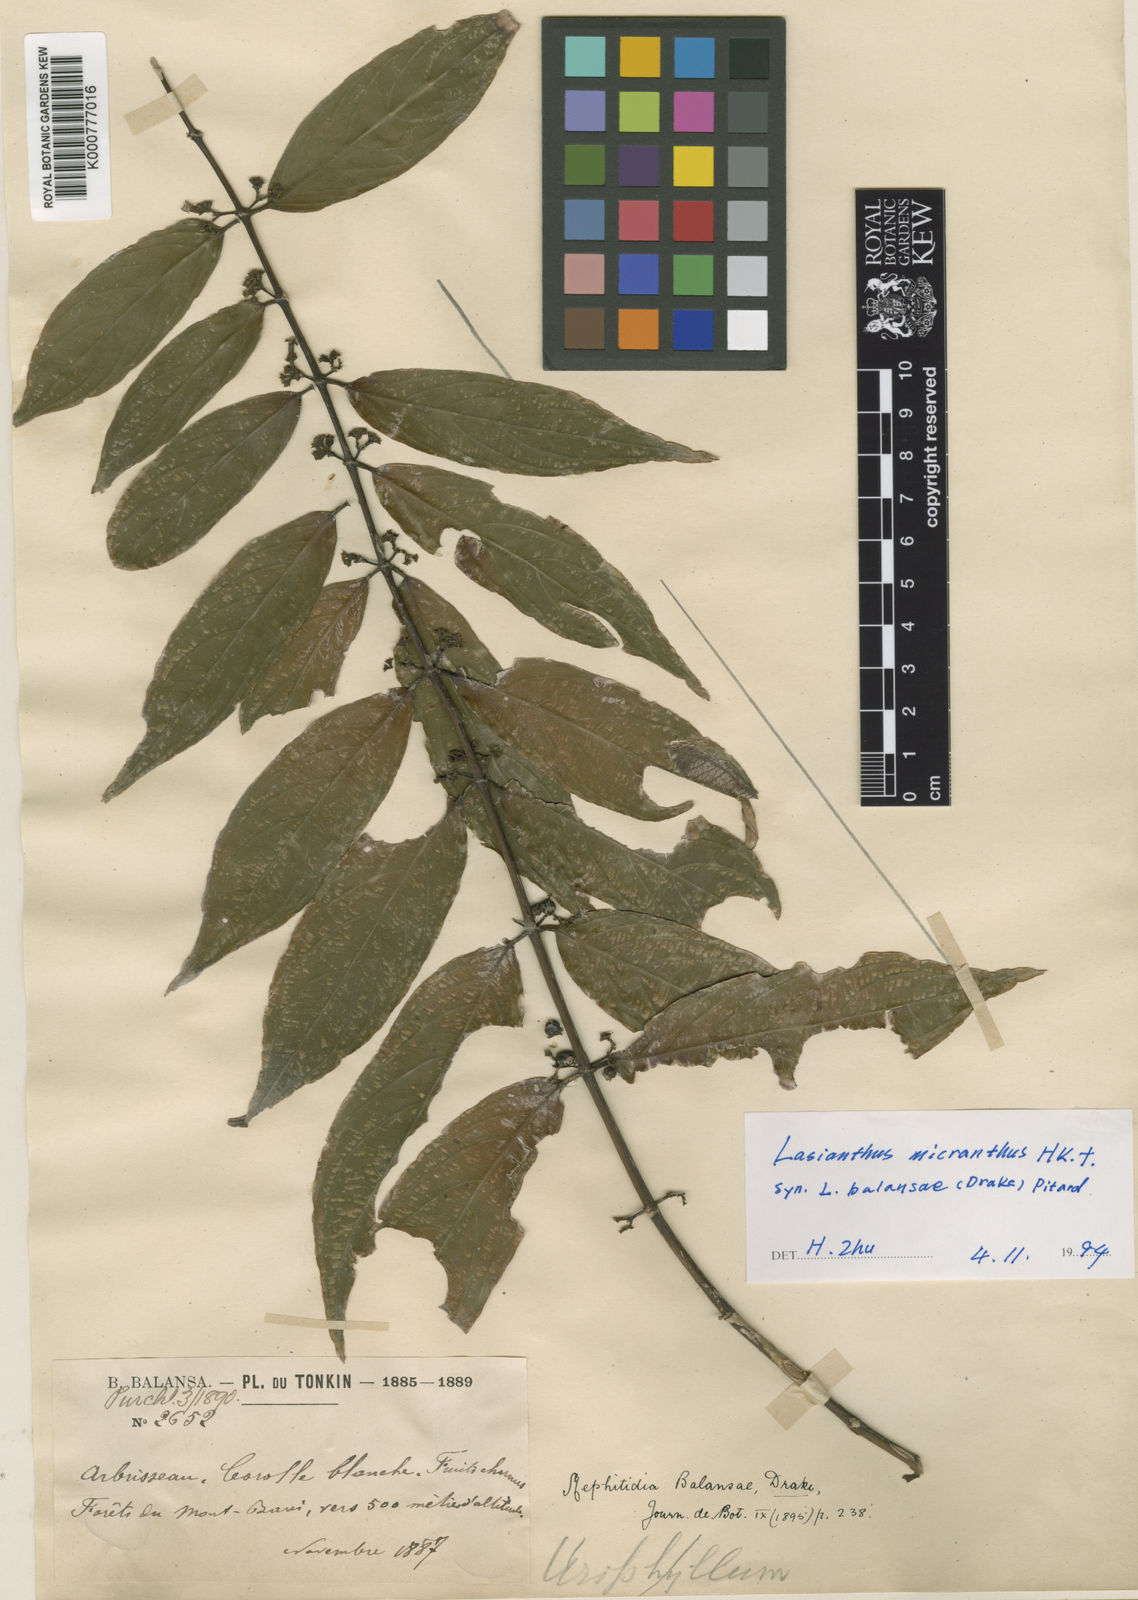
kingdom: Plantae
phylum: Tracheophyta
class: Magnoliopsida
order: Gentianales
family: Rubiaceae
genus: Lasianthus
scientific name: Lasianthus micranthus
